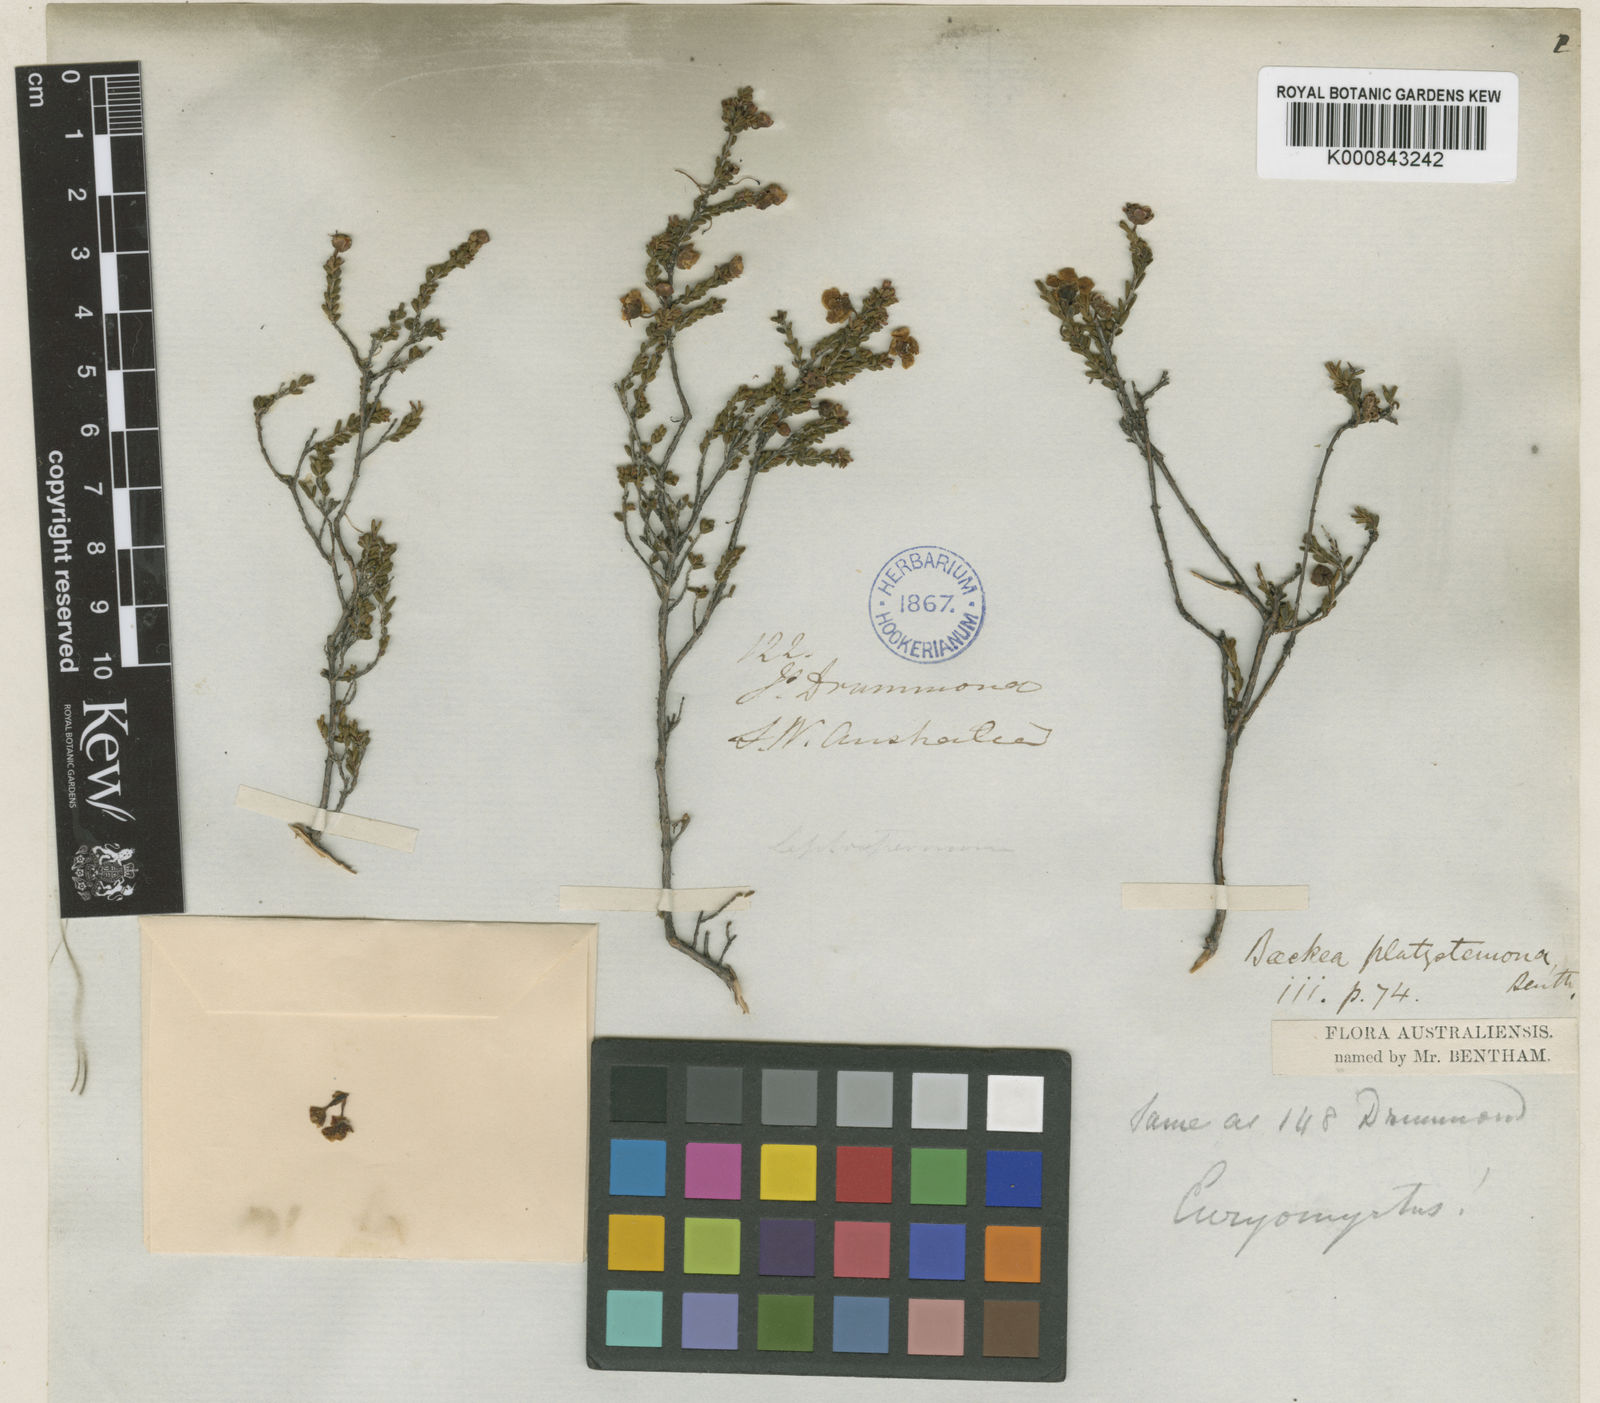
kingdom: Plantae
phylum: Tracheophyta
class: Magnoliopsida
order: Myrtales
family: Myrtaceae
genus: Rinzia
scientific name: Rinzia crassifolia
